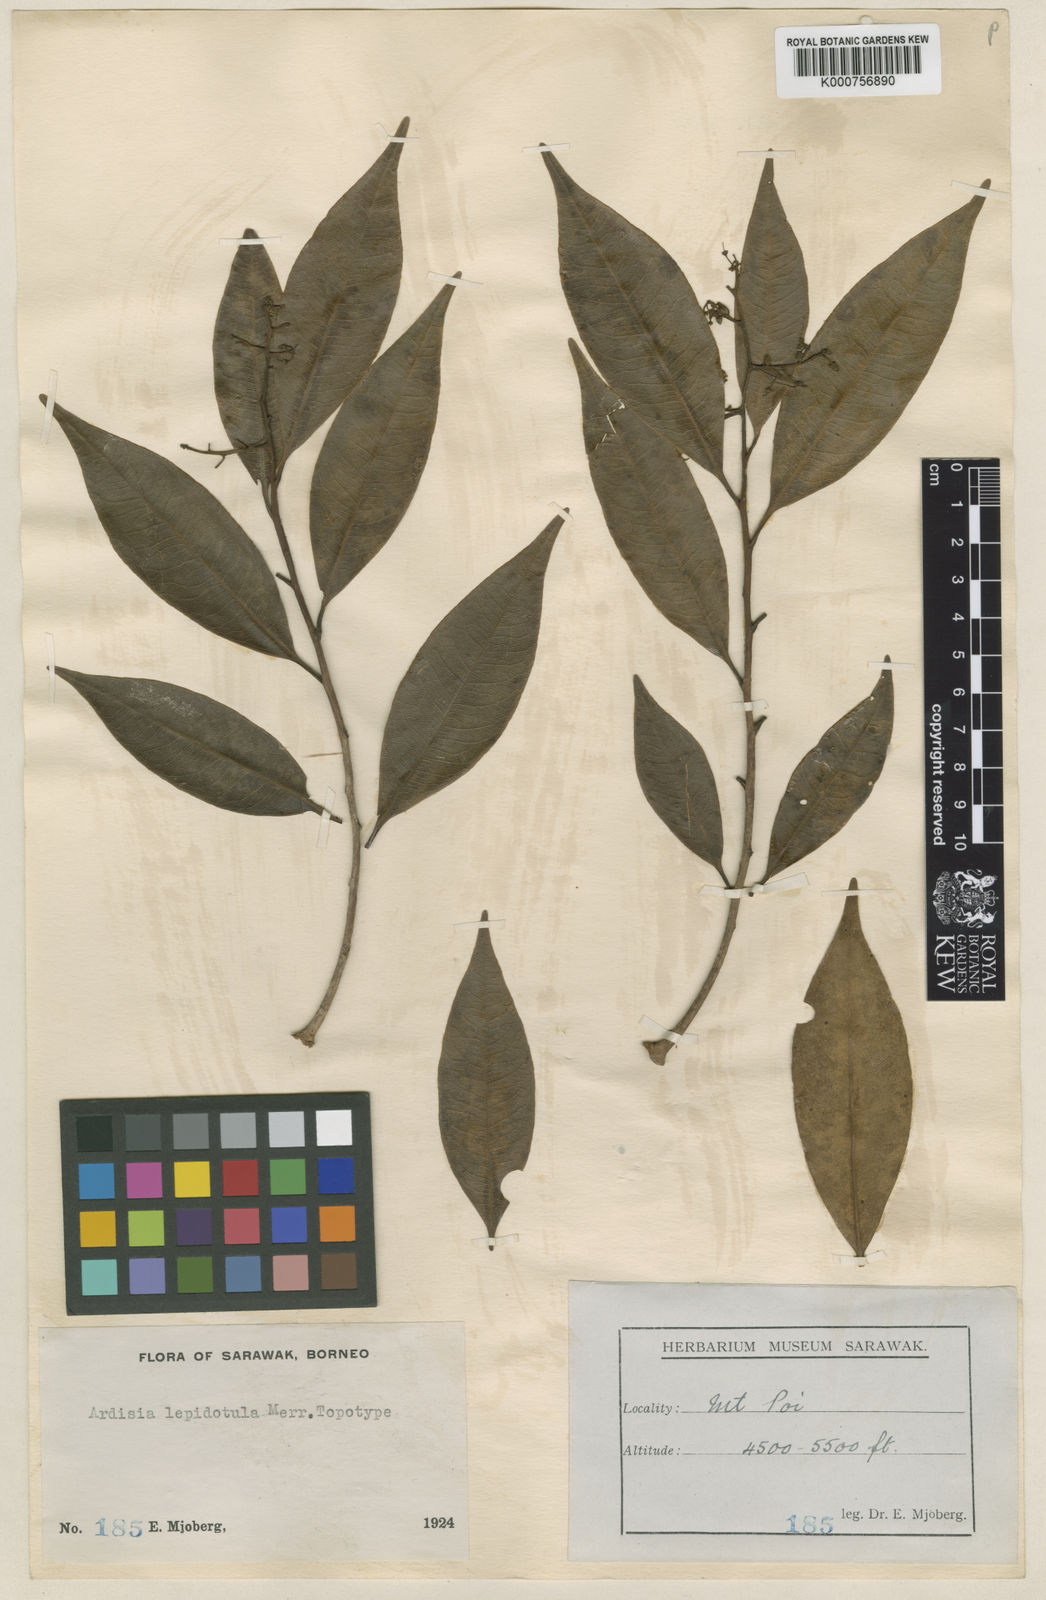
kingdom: Plantae
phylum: Tracheophyta
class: Magnoliopsida
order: Ericales
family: Primulaceae
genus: Ardisia
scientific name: Ardisia lepidotula
